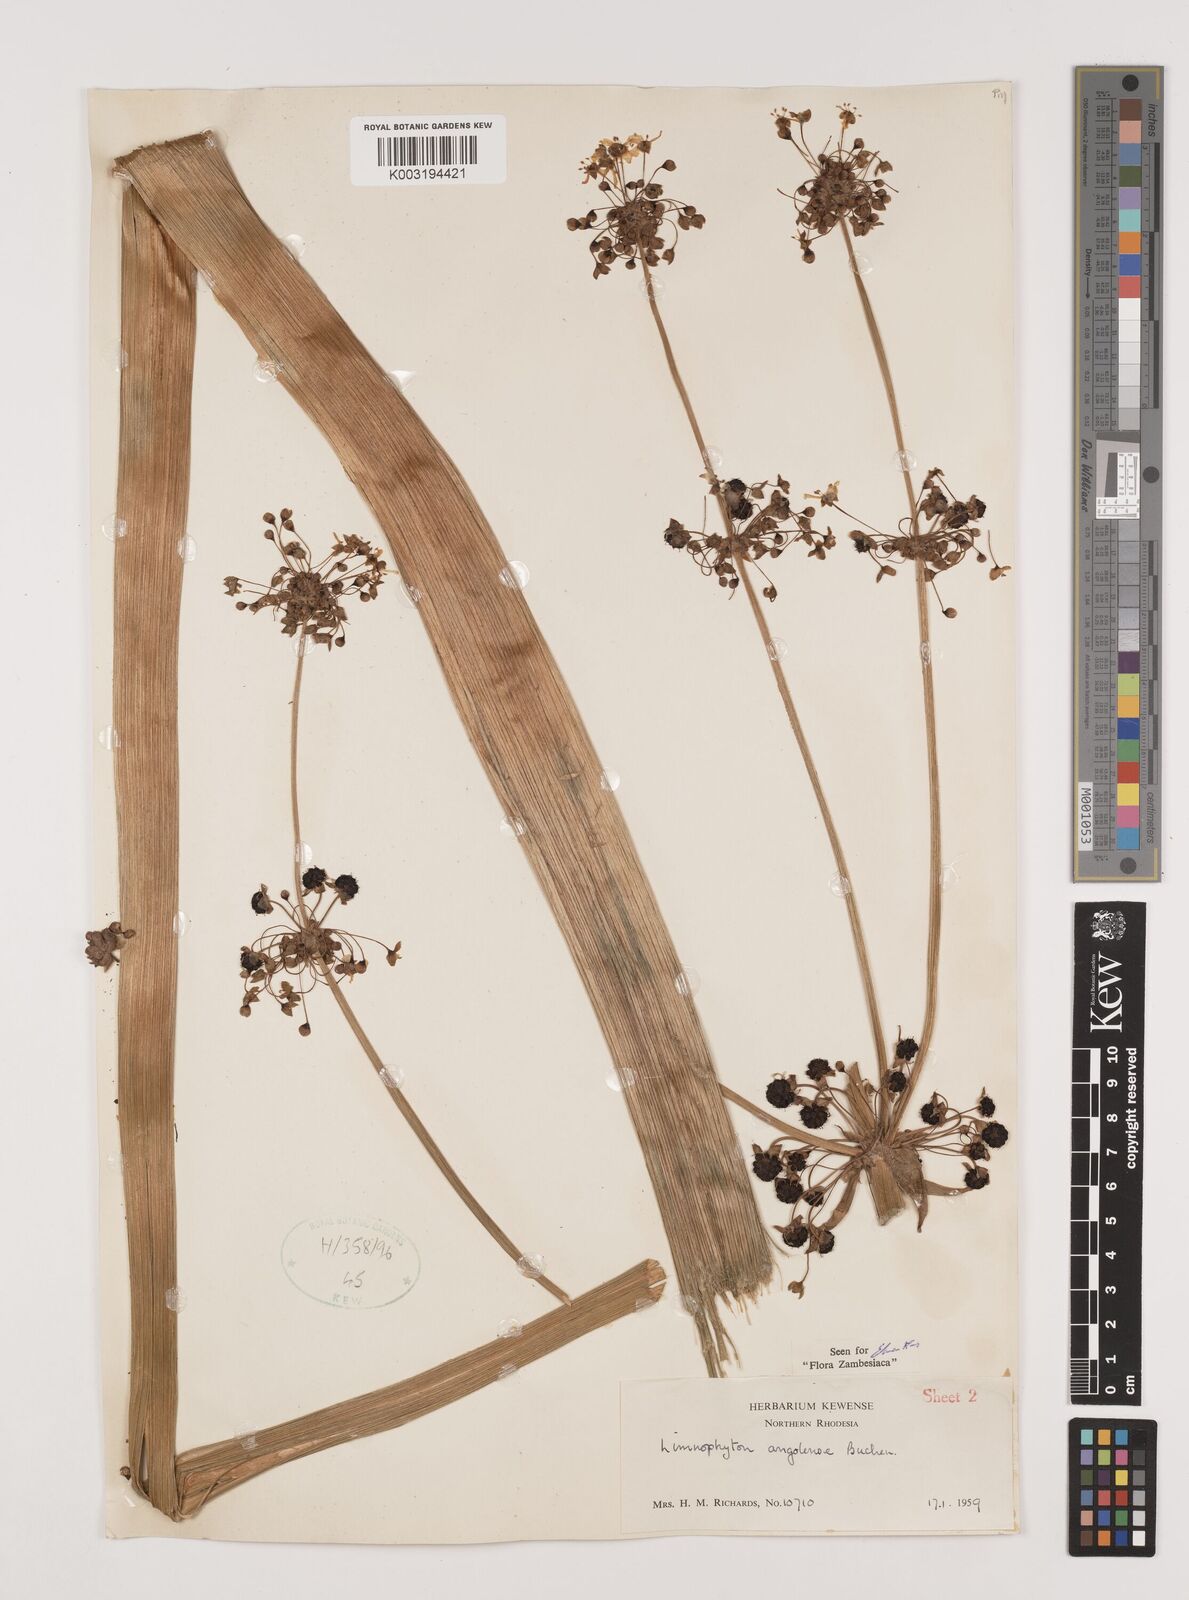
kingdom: Plantae
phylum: Tracheophyta
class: Liliopsida
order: Alismatales
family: Alismataceae
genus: Limnophyton
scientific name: Limnophyton angolense
